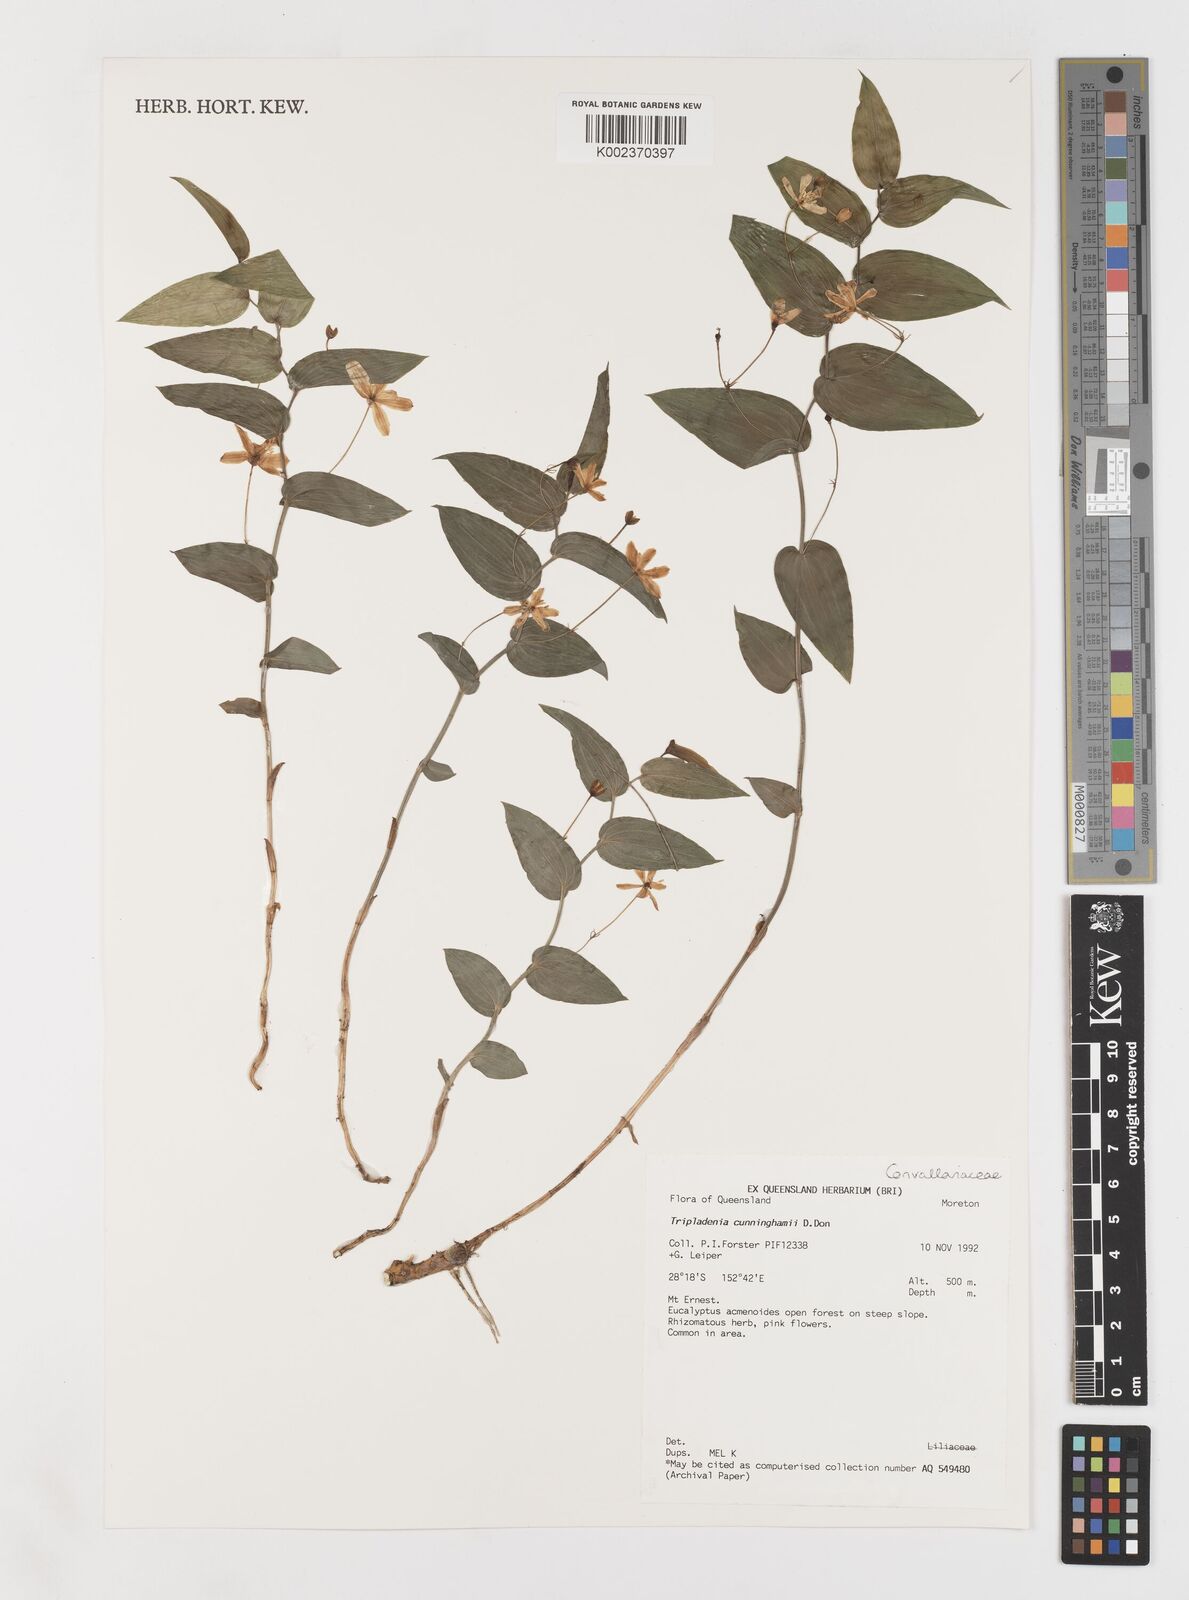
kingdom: Plantae
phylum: Tracheophyta
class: Liliopsida
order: Liliales
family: Colchicaceae
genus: Tripladenia
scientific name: Tripladenia
